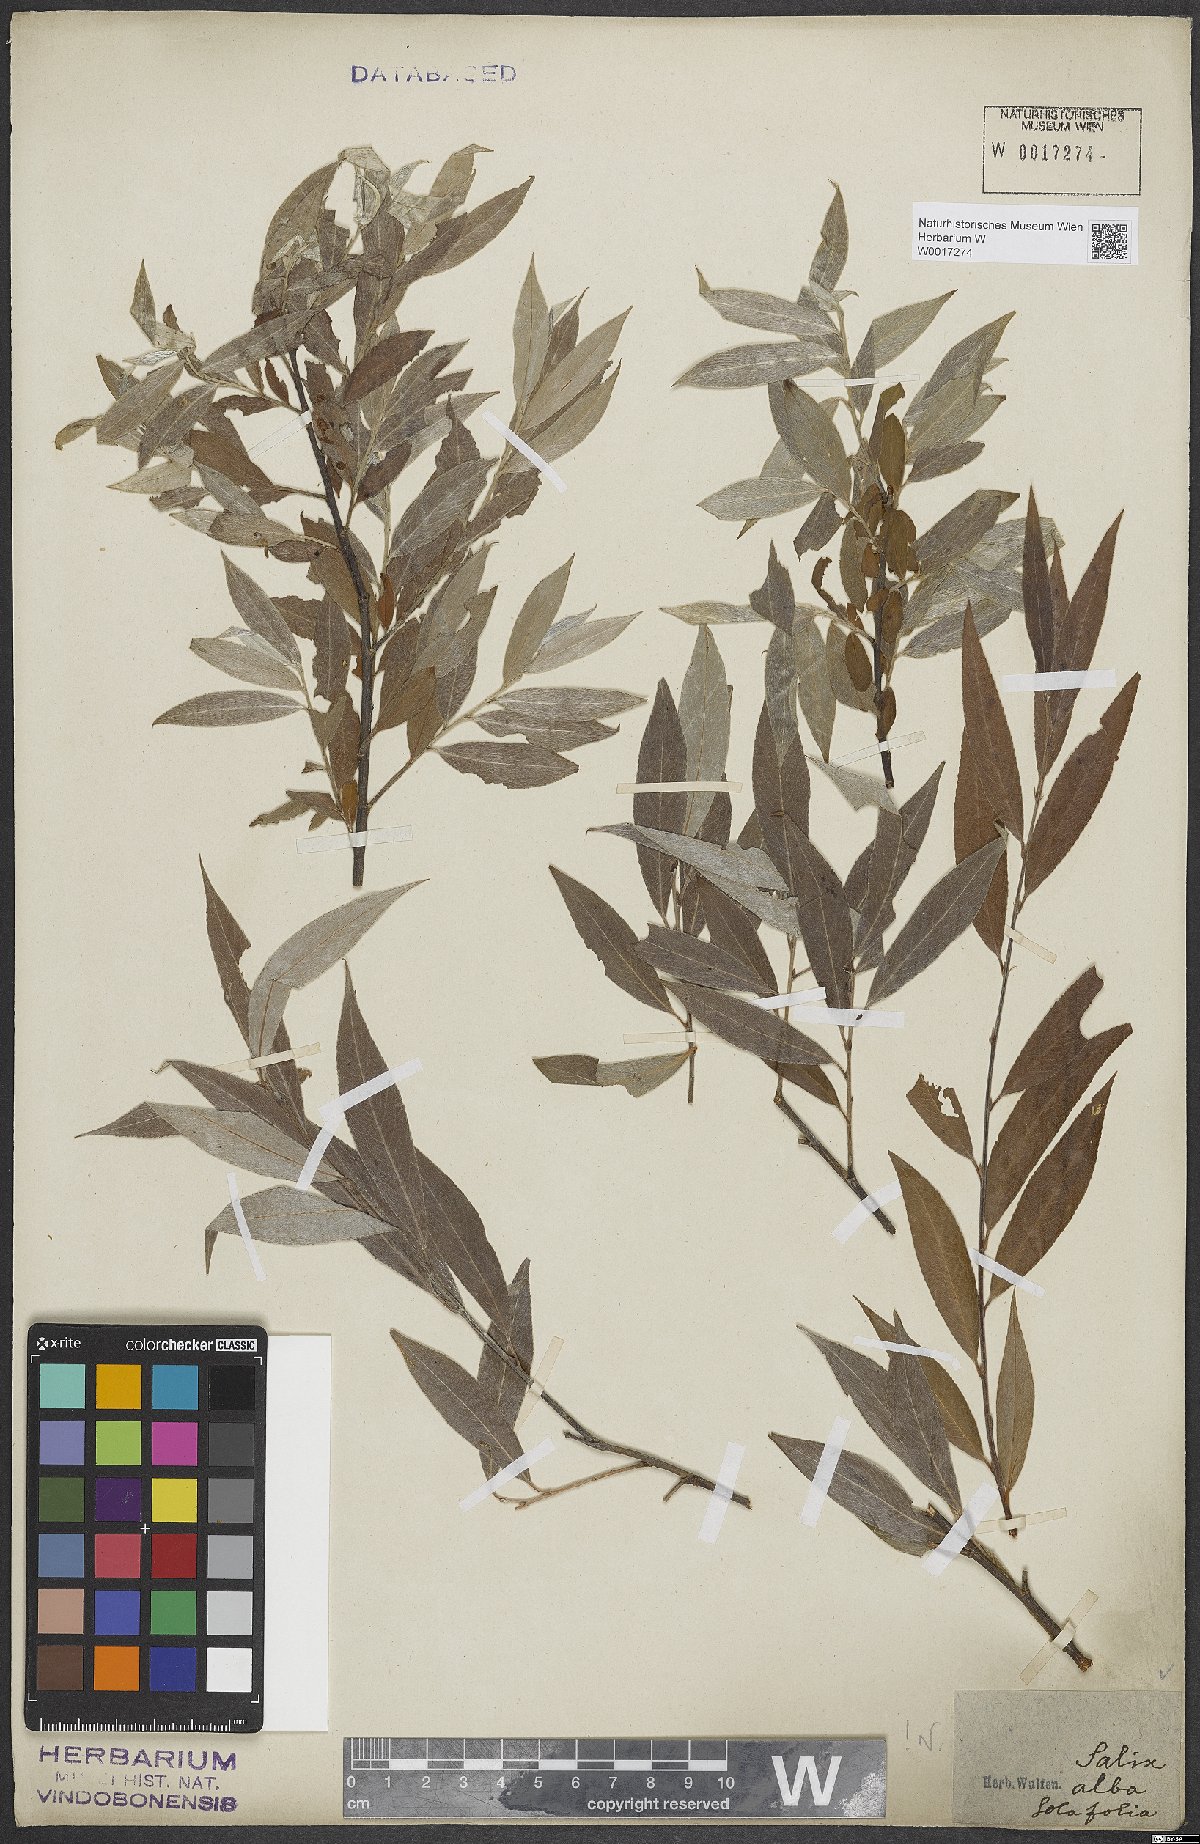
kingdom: Plantae
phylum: Tracheophyta
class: Magnoliopsida
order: Malpighiales
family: Salicaceae
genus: Salix
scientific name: Salix alba
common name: White willow
